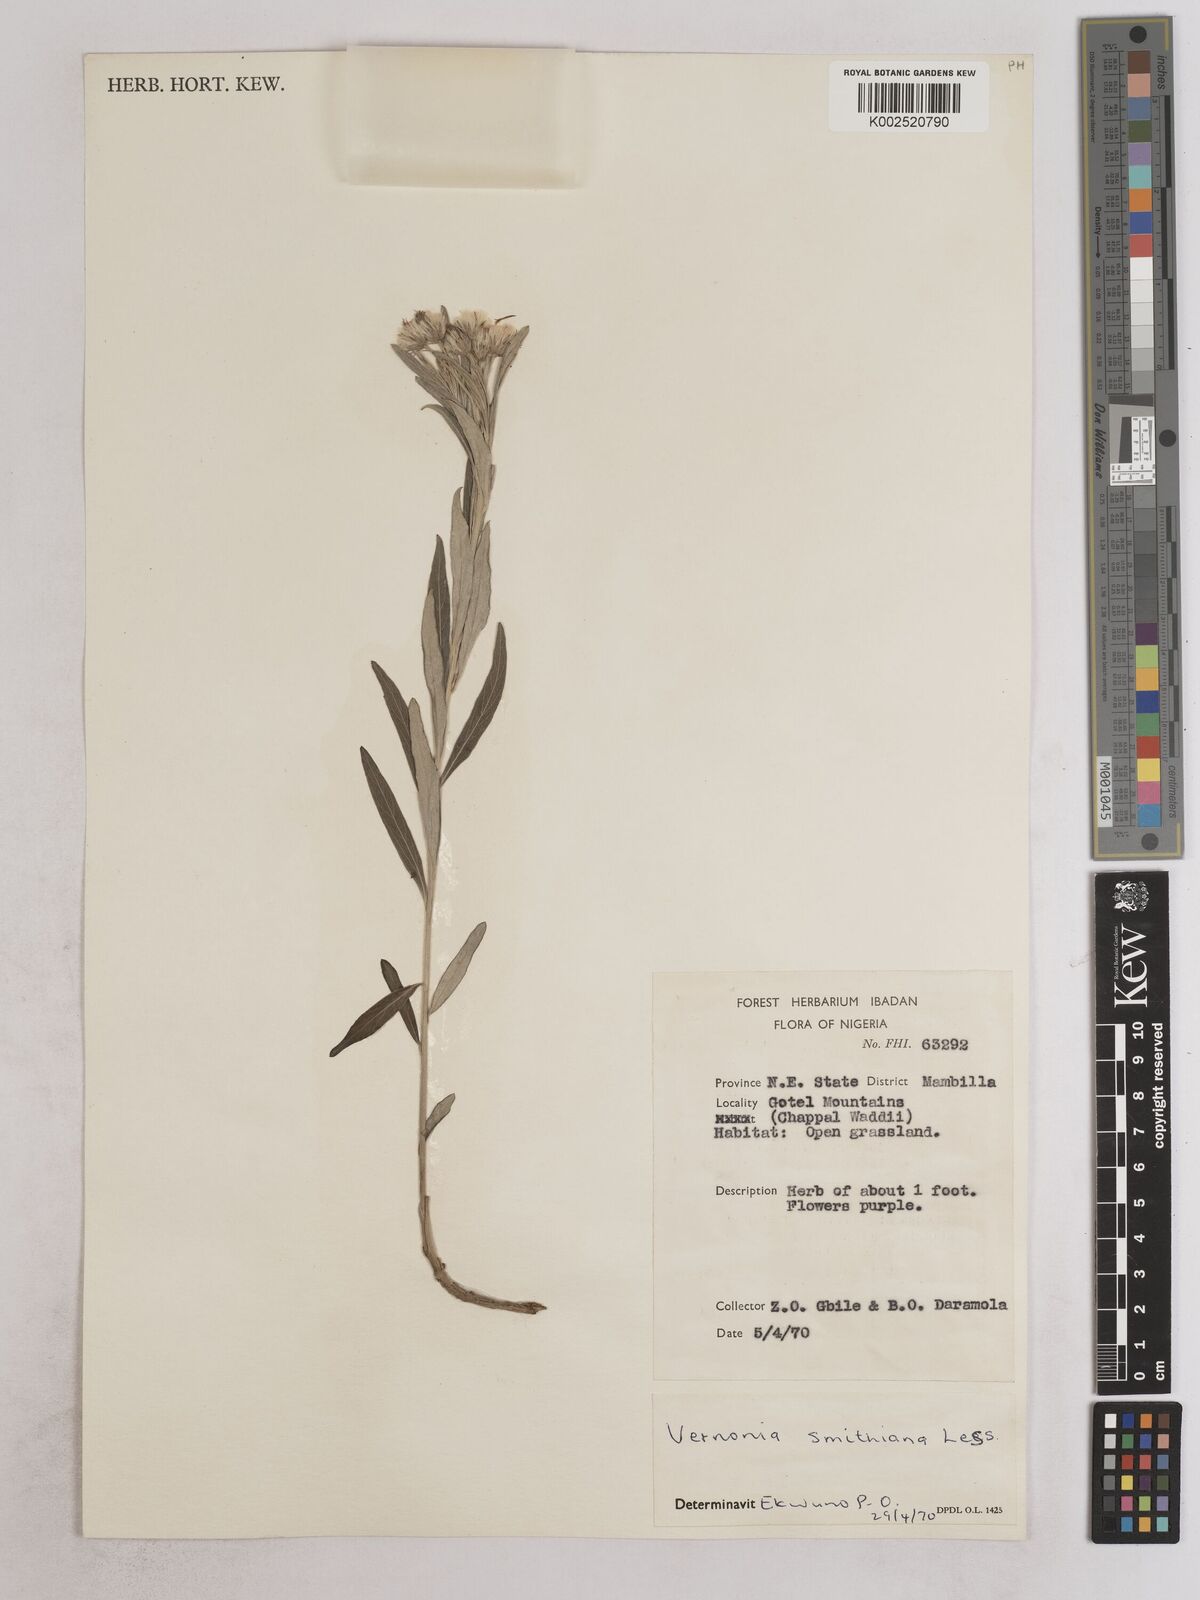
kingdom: Plantae
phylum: Tracheophyta
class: Magnoliopsida
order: Asterales
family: Asteraceae
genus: Hilliardiella
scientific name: Hilliardiella smithiana
